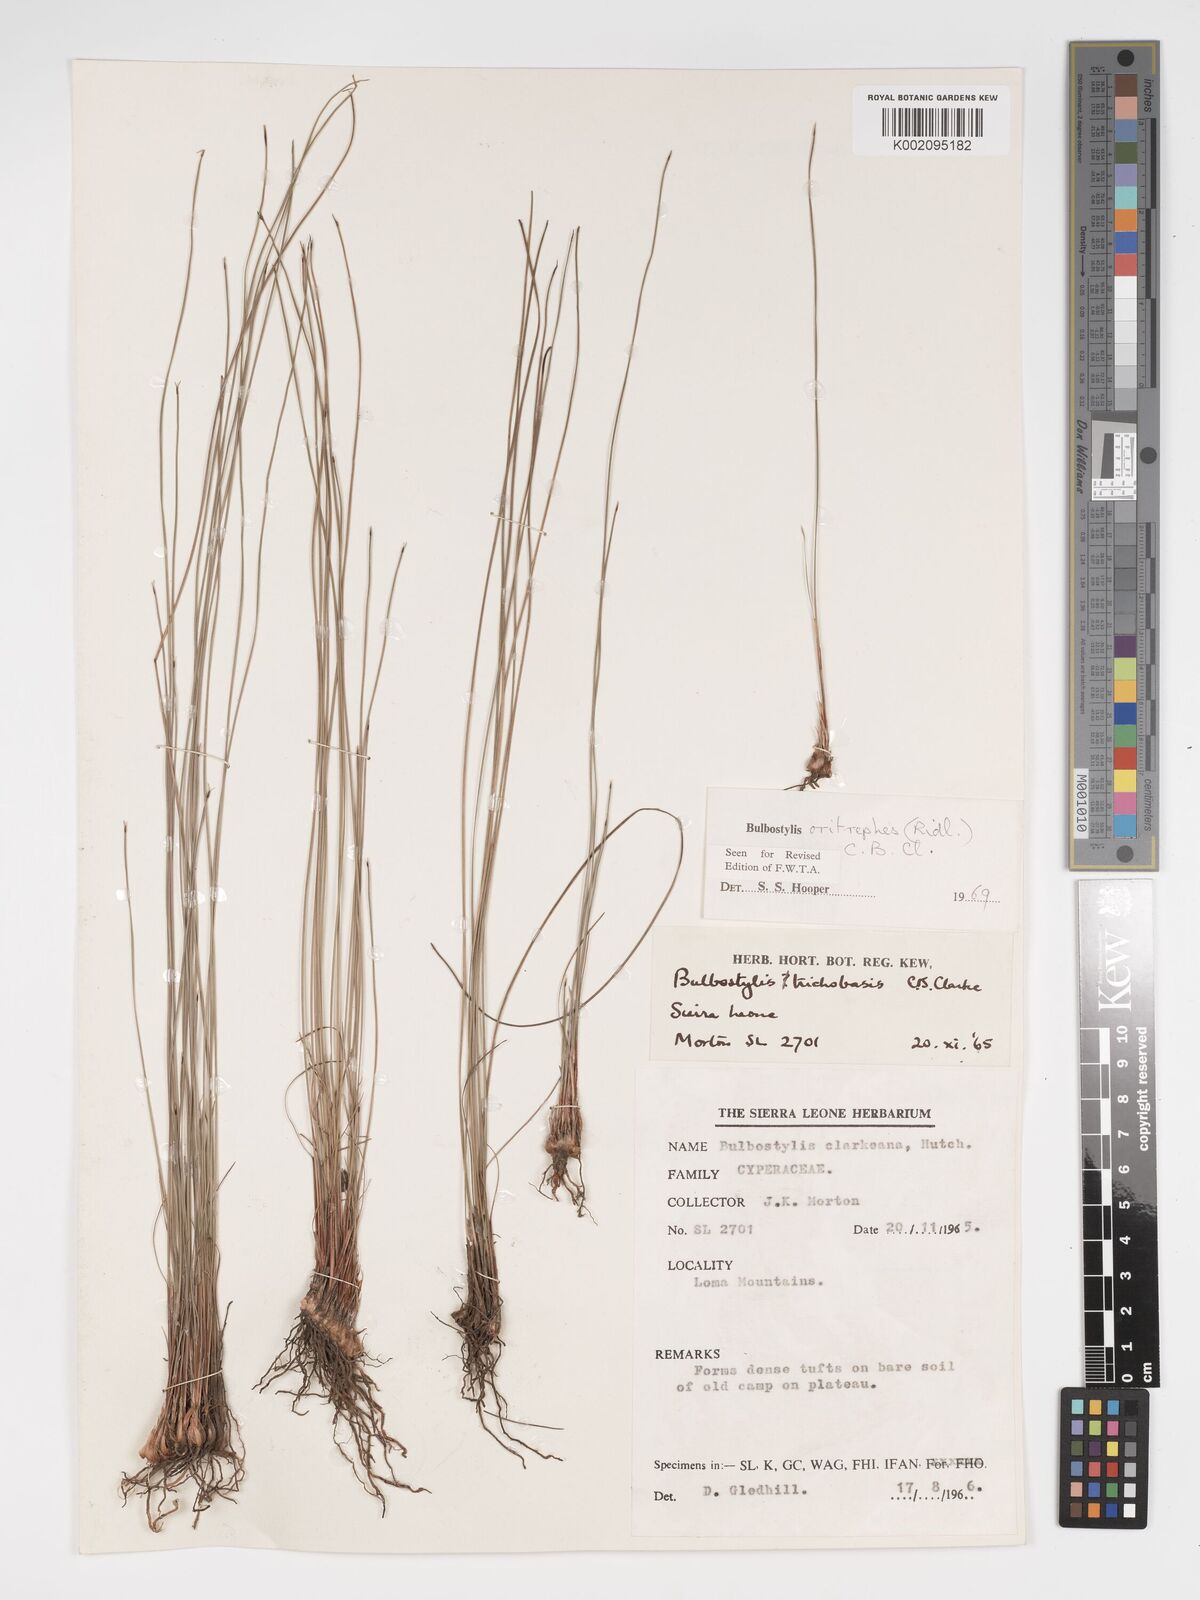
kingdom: Plantae
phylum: Tracheophyta
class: Liliopsida
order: Poales
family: Cyperaceae
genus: Bulbostylis
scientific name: Bulbostylis oritrephes
